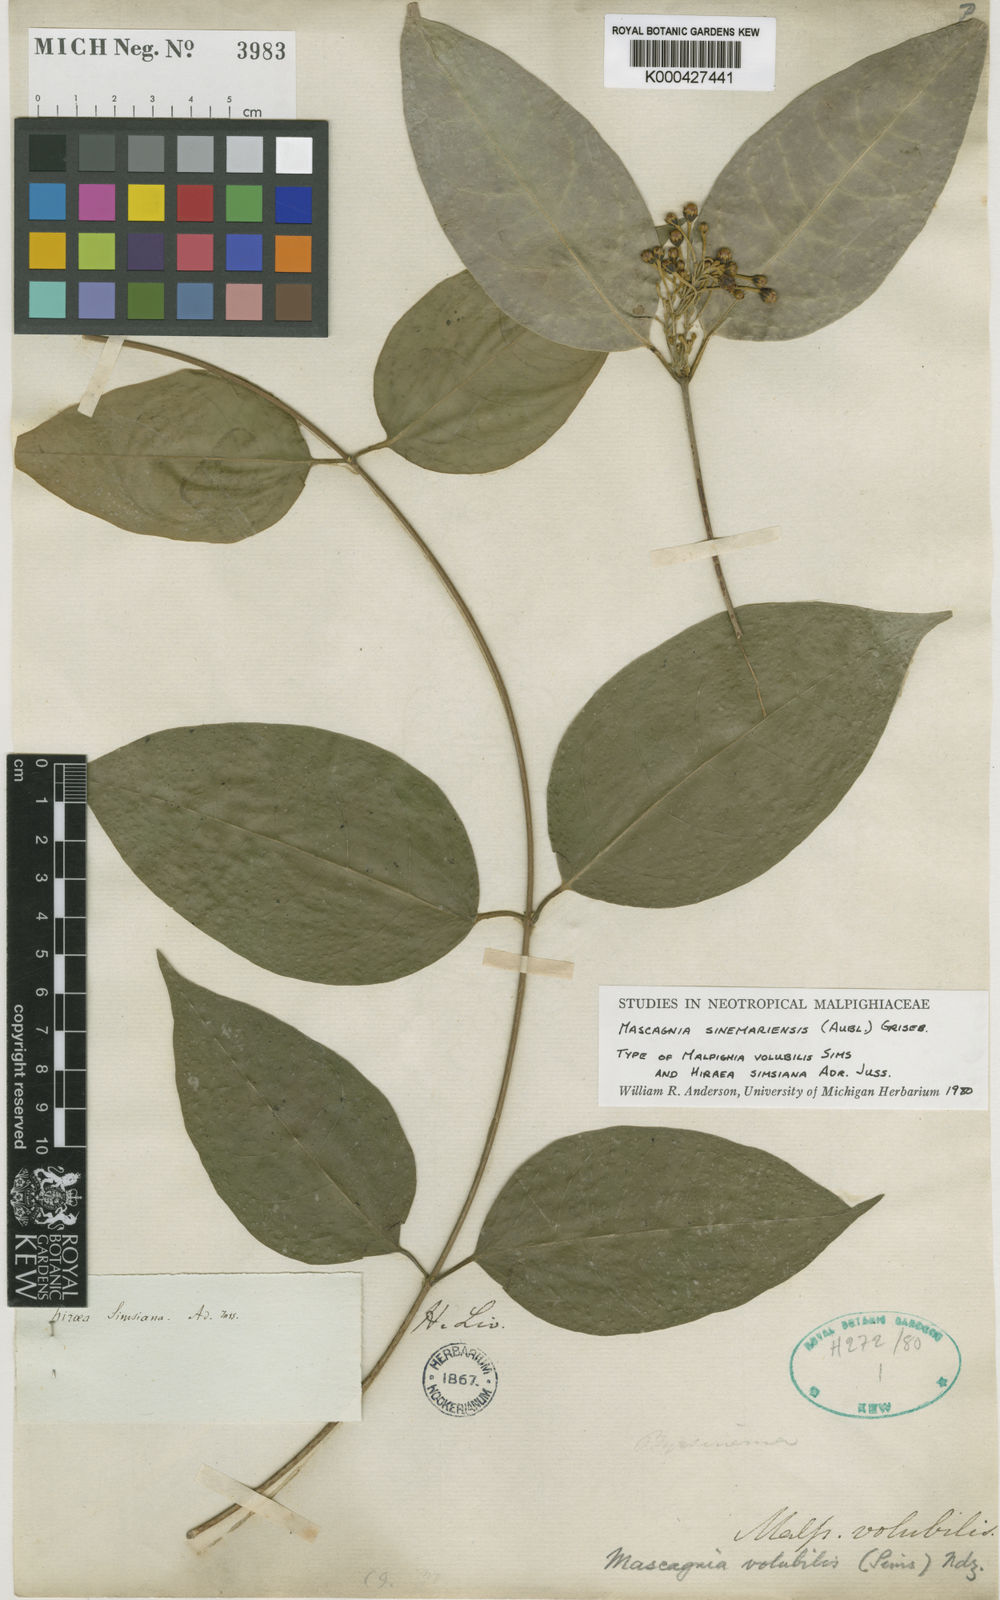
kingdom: Plantae
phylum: Tracheophyta
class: Magnoliopsida
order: Malpighiales
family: Malpighiaceae
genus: Carolus
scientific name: Carolus sinemariensis
